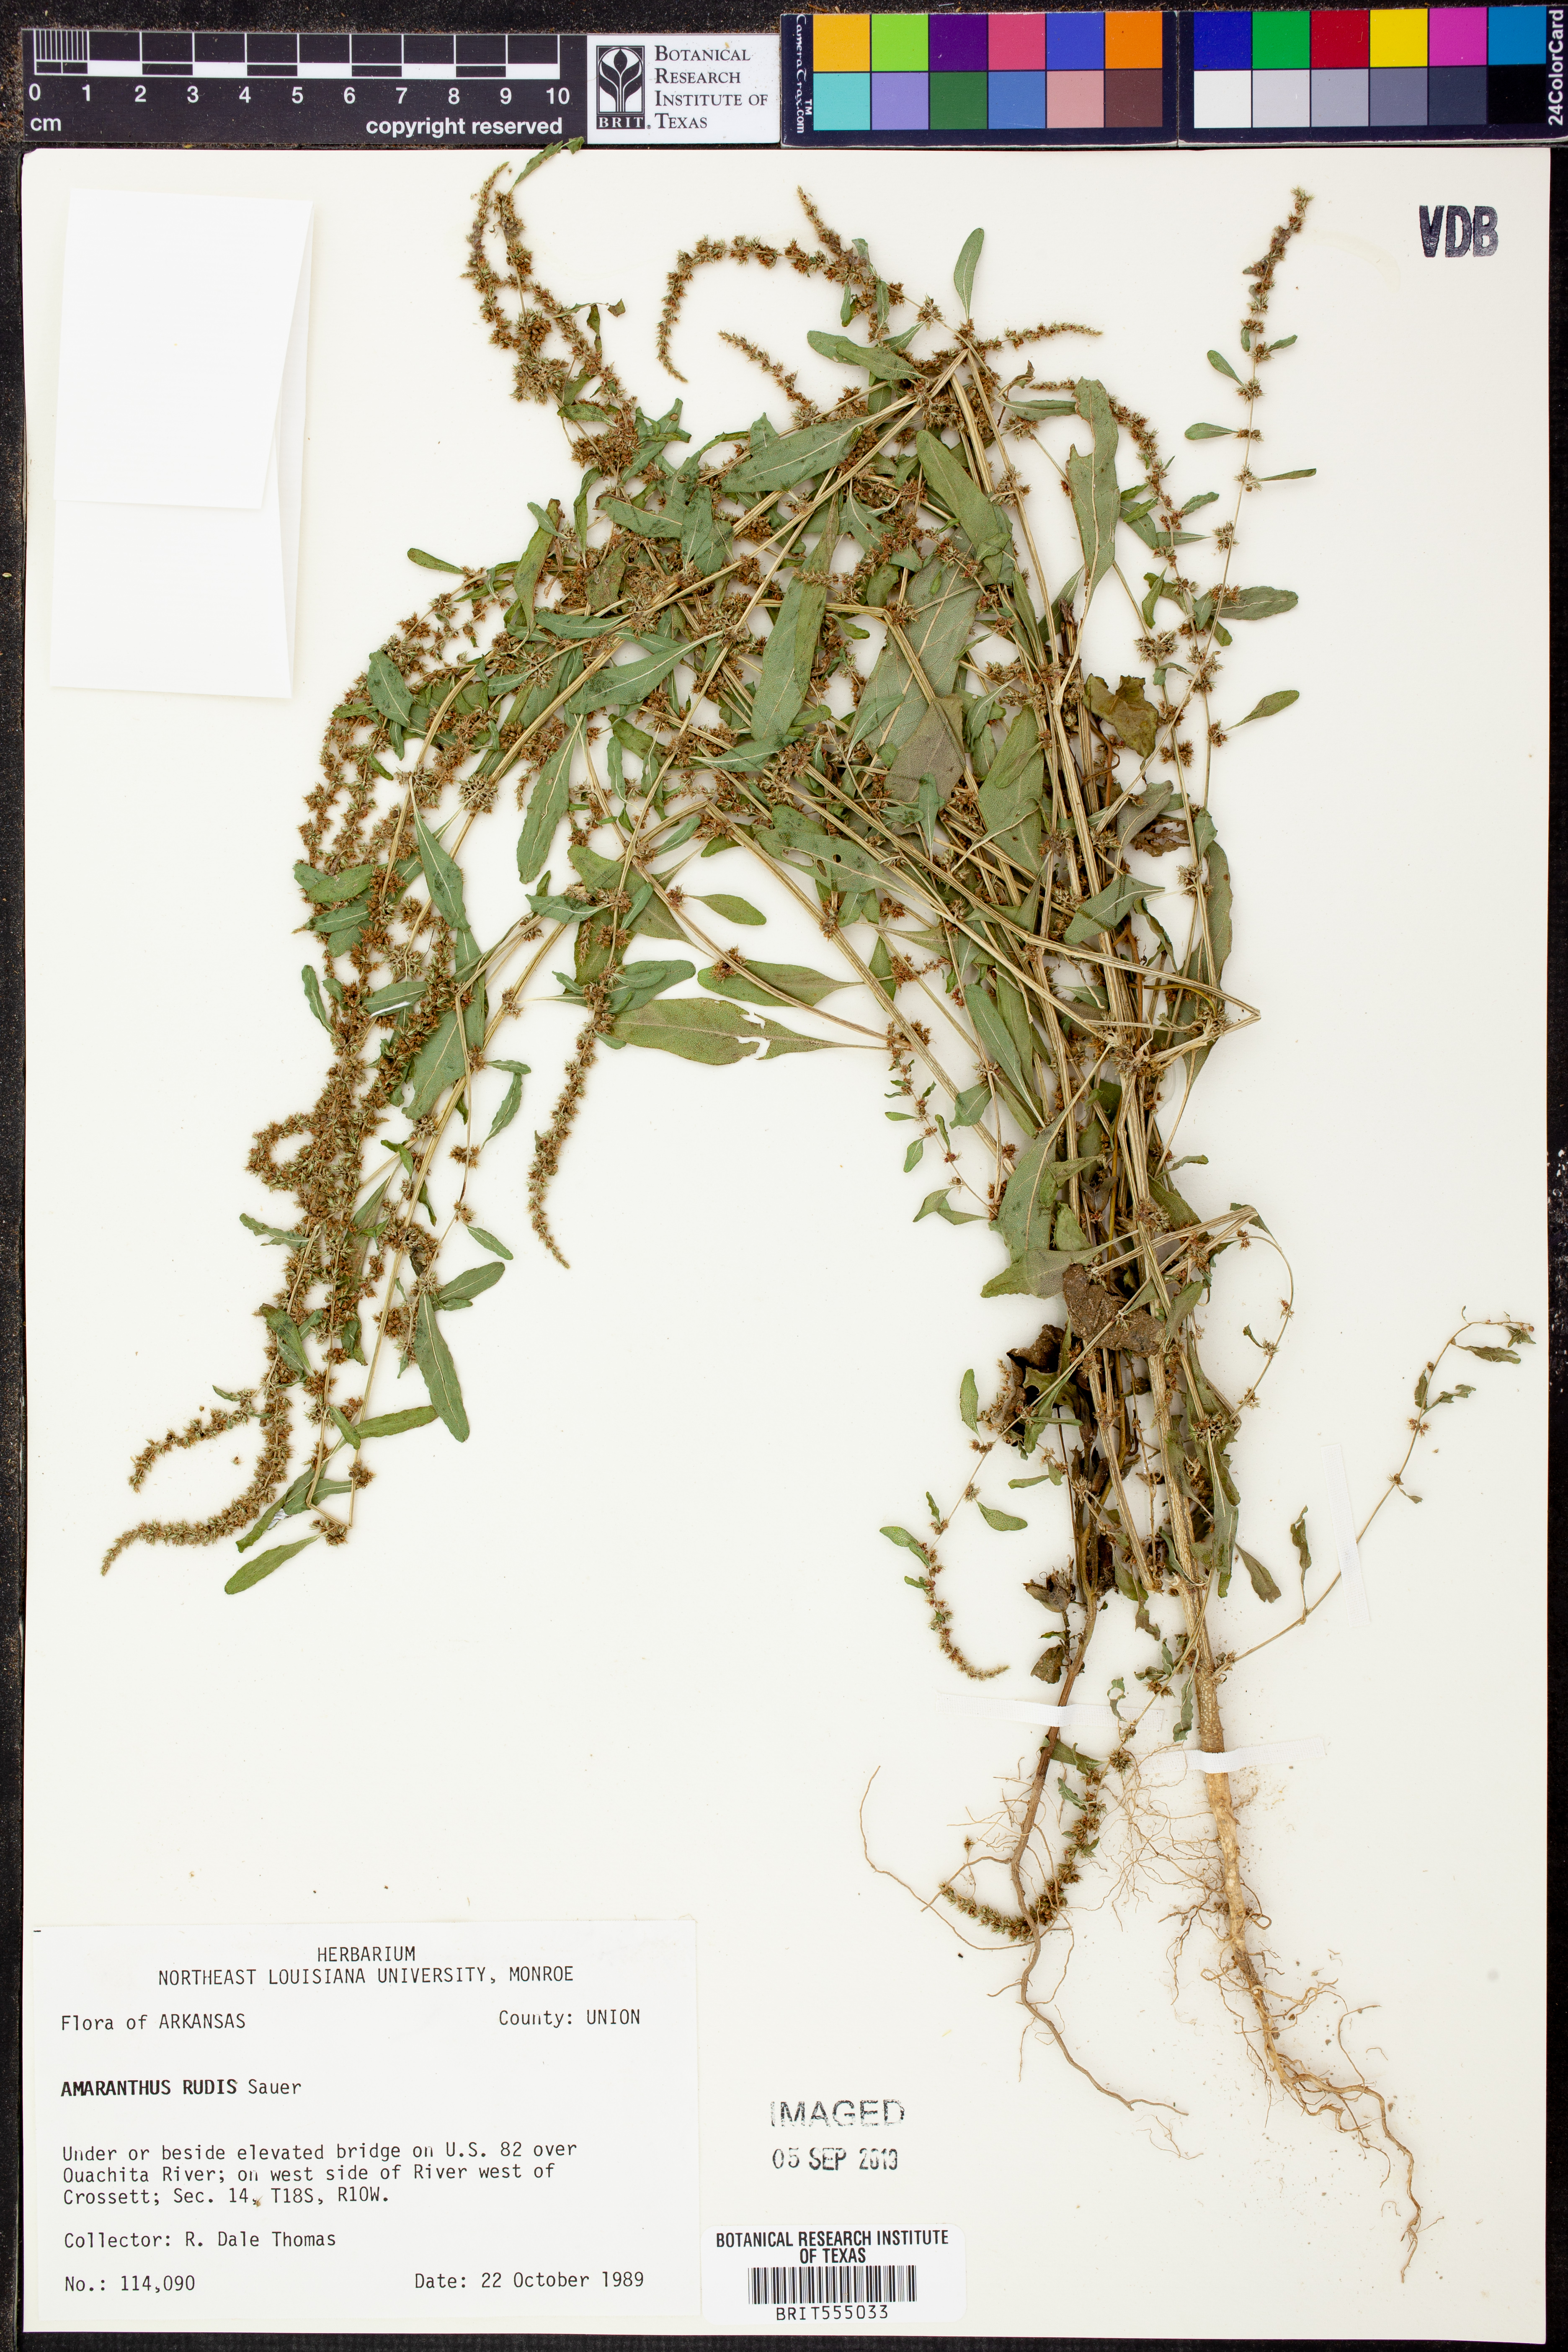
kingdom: Plantae
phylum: Tracheophyta
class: Magnoliopsida
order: Caryophyllales
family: Amaranthaceae
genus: Amaranthus
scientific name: Amaranthus tuberculatus
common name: Rough-fruit amaranth
